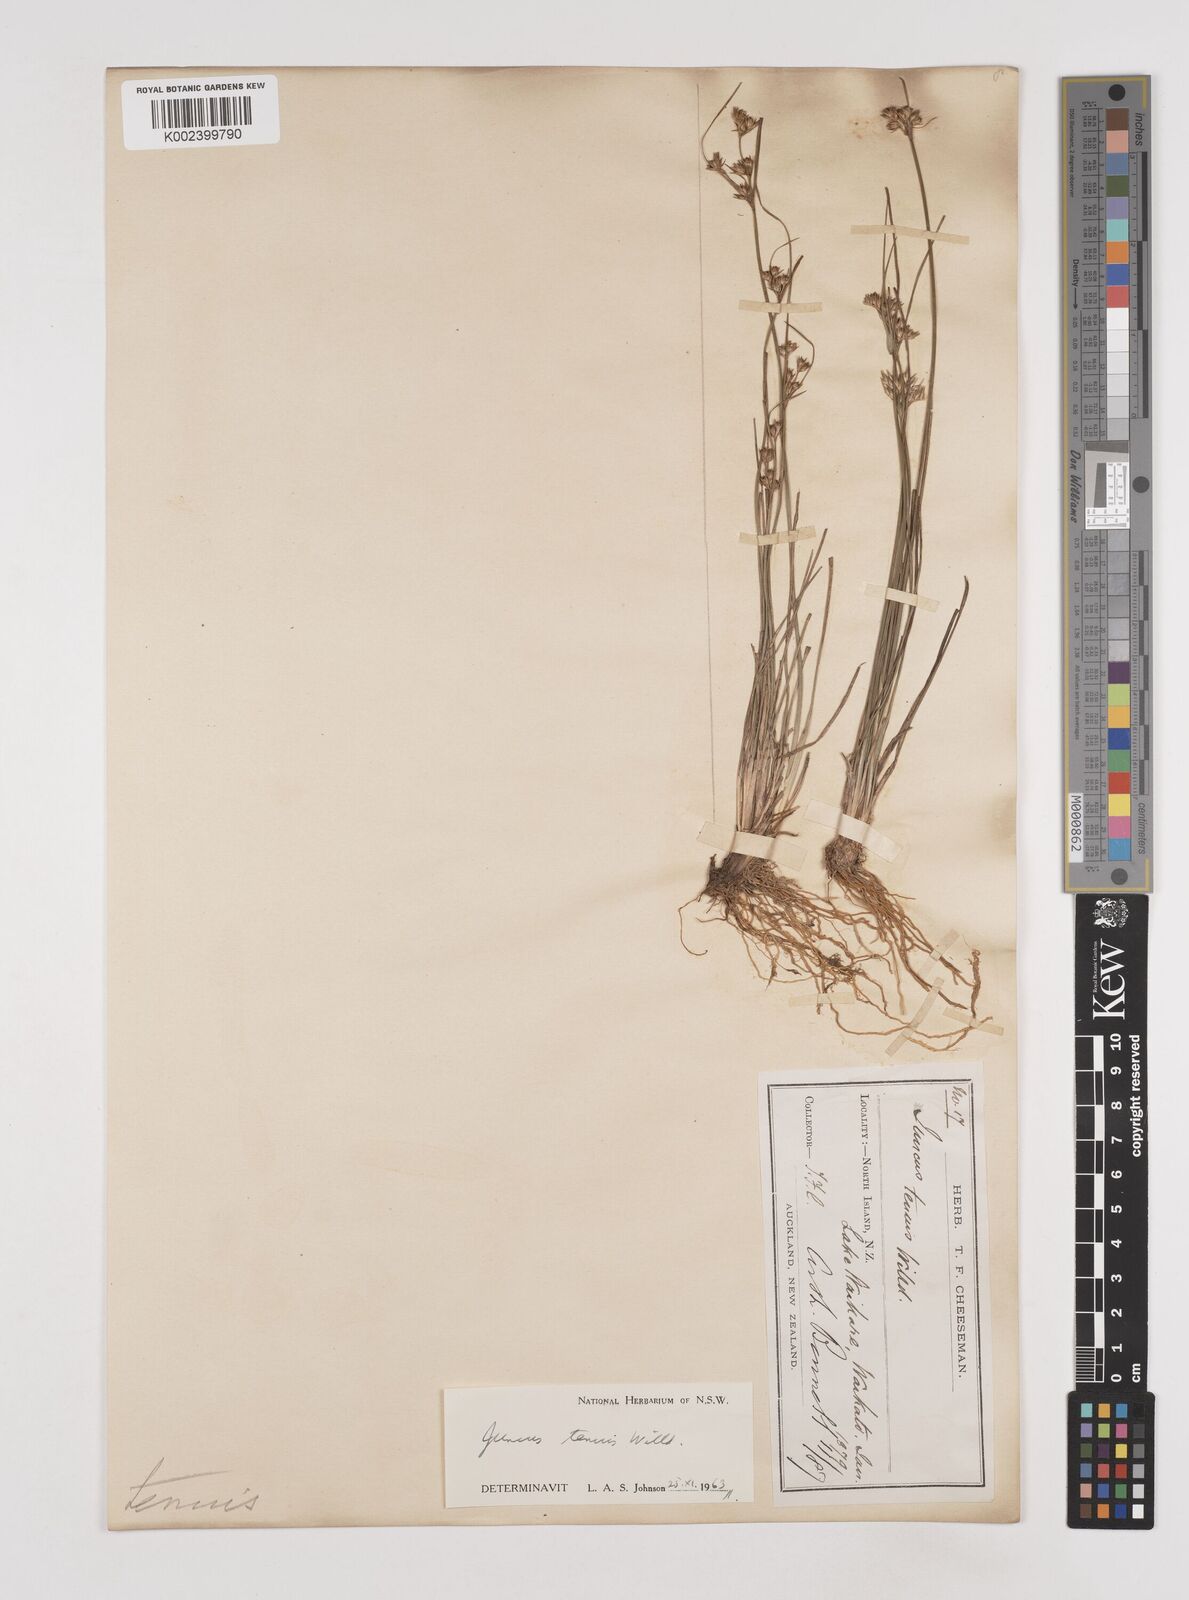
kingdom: Plantae
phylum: Tracheophyta
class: Liliopsida
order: Poales
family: Juncaceae
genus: Juncus
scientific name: Juncus tenuis
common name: Slender rush
